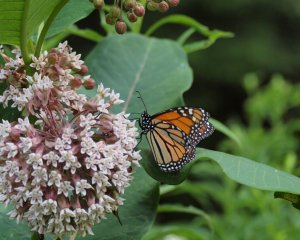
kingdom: Animalia
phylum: Arthropoda
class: Insecta
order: Lepidoptera
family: Nymphalidae
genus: Danaus
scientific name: Danaus plexippus
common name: Monarch
